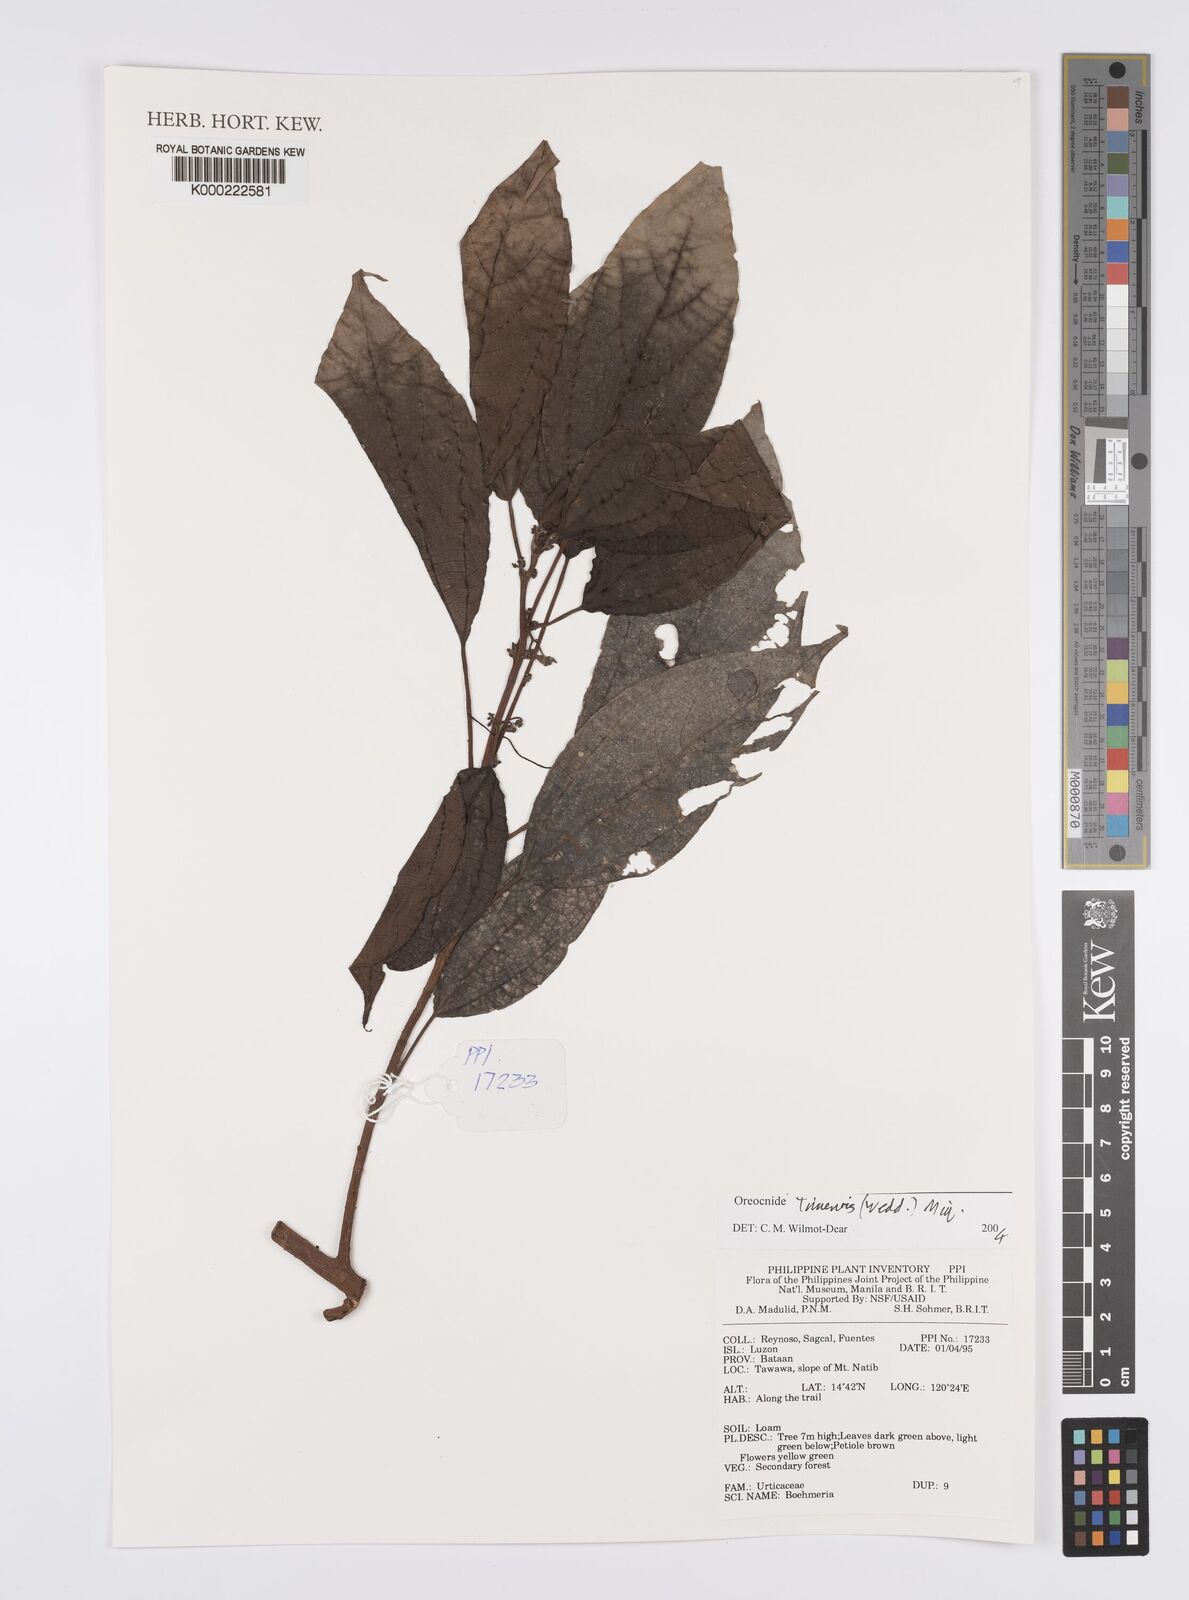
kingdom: Plantae
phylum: Tracheophyta
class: Magnoliopsida
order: Rosales
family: Urticaceae
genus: Oreocnide
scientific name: Oreocnide trinervis
